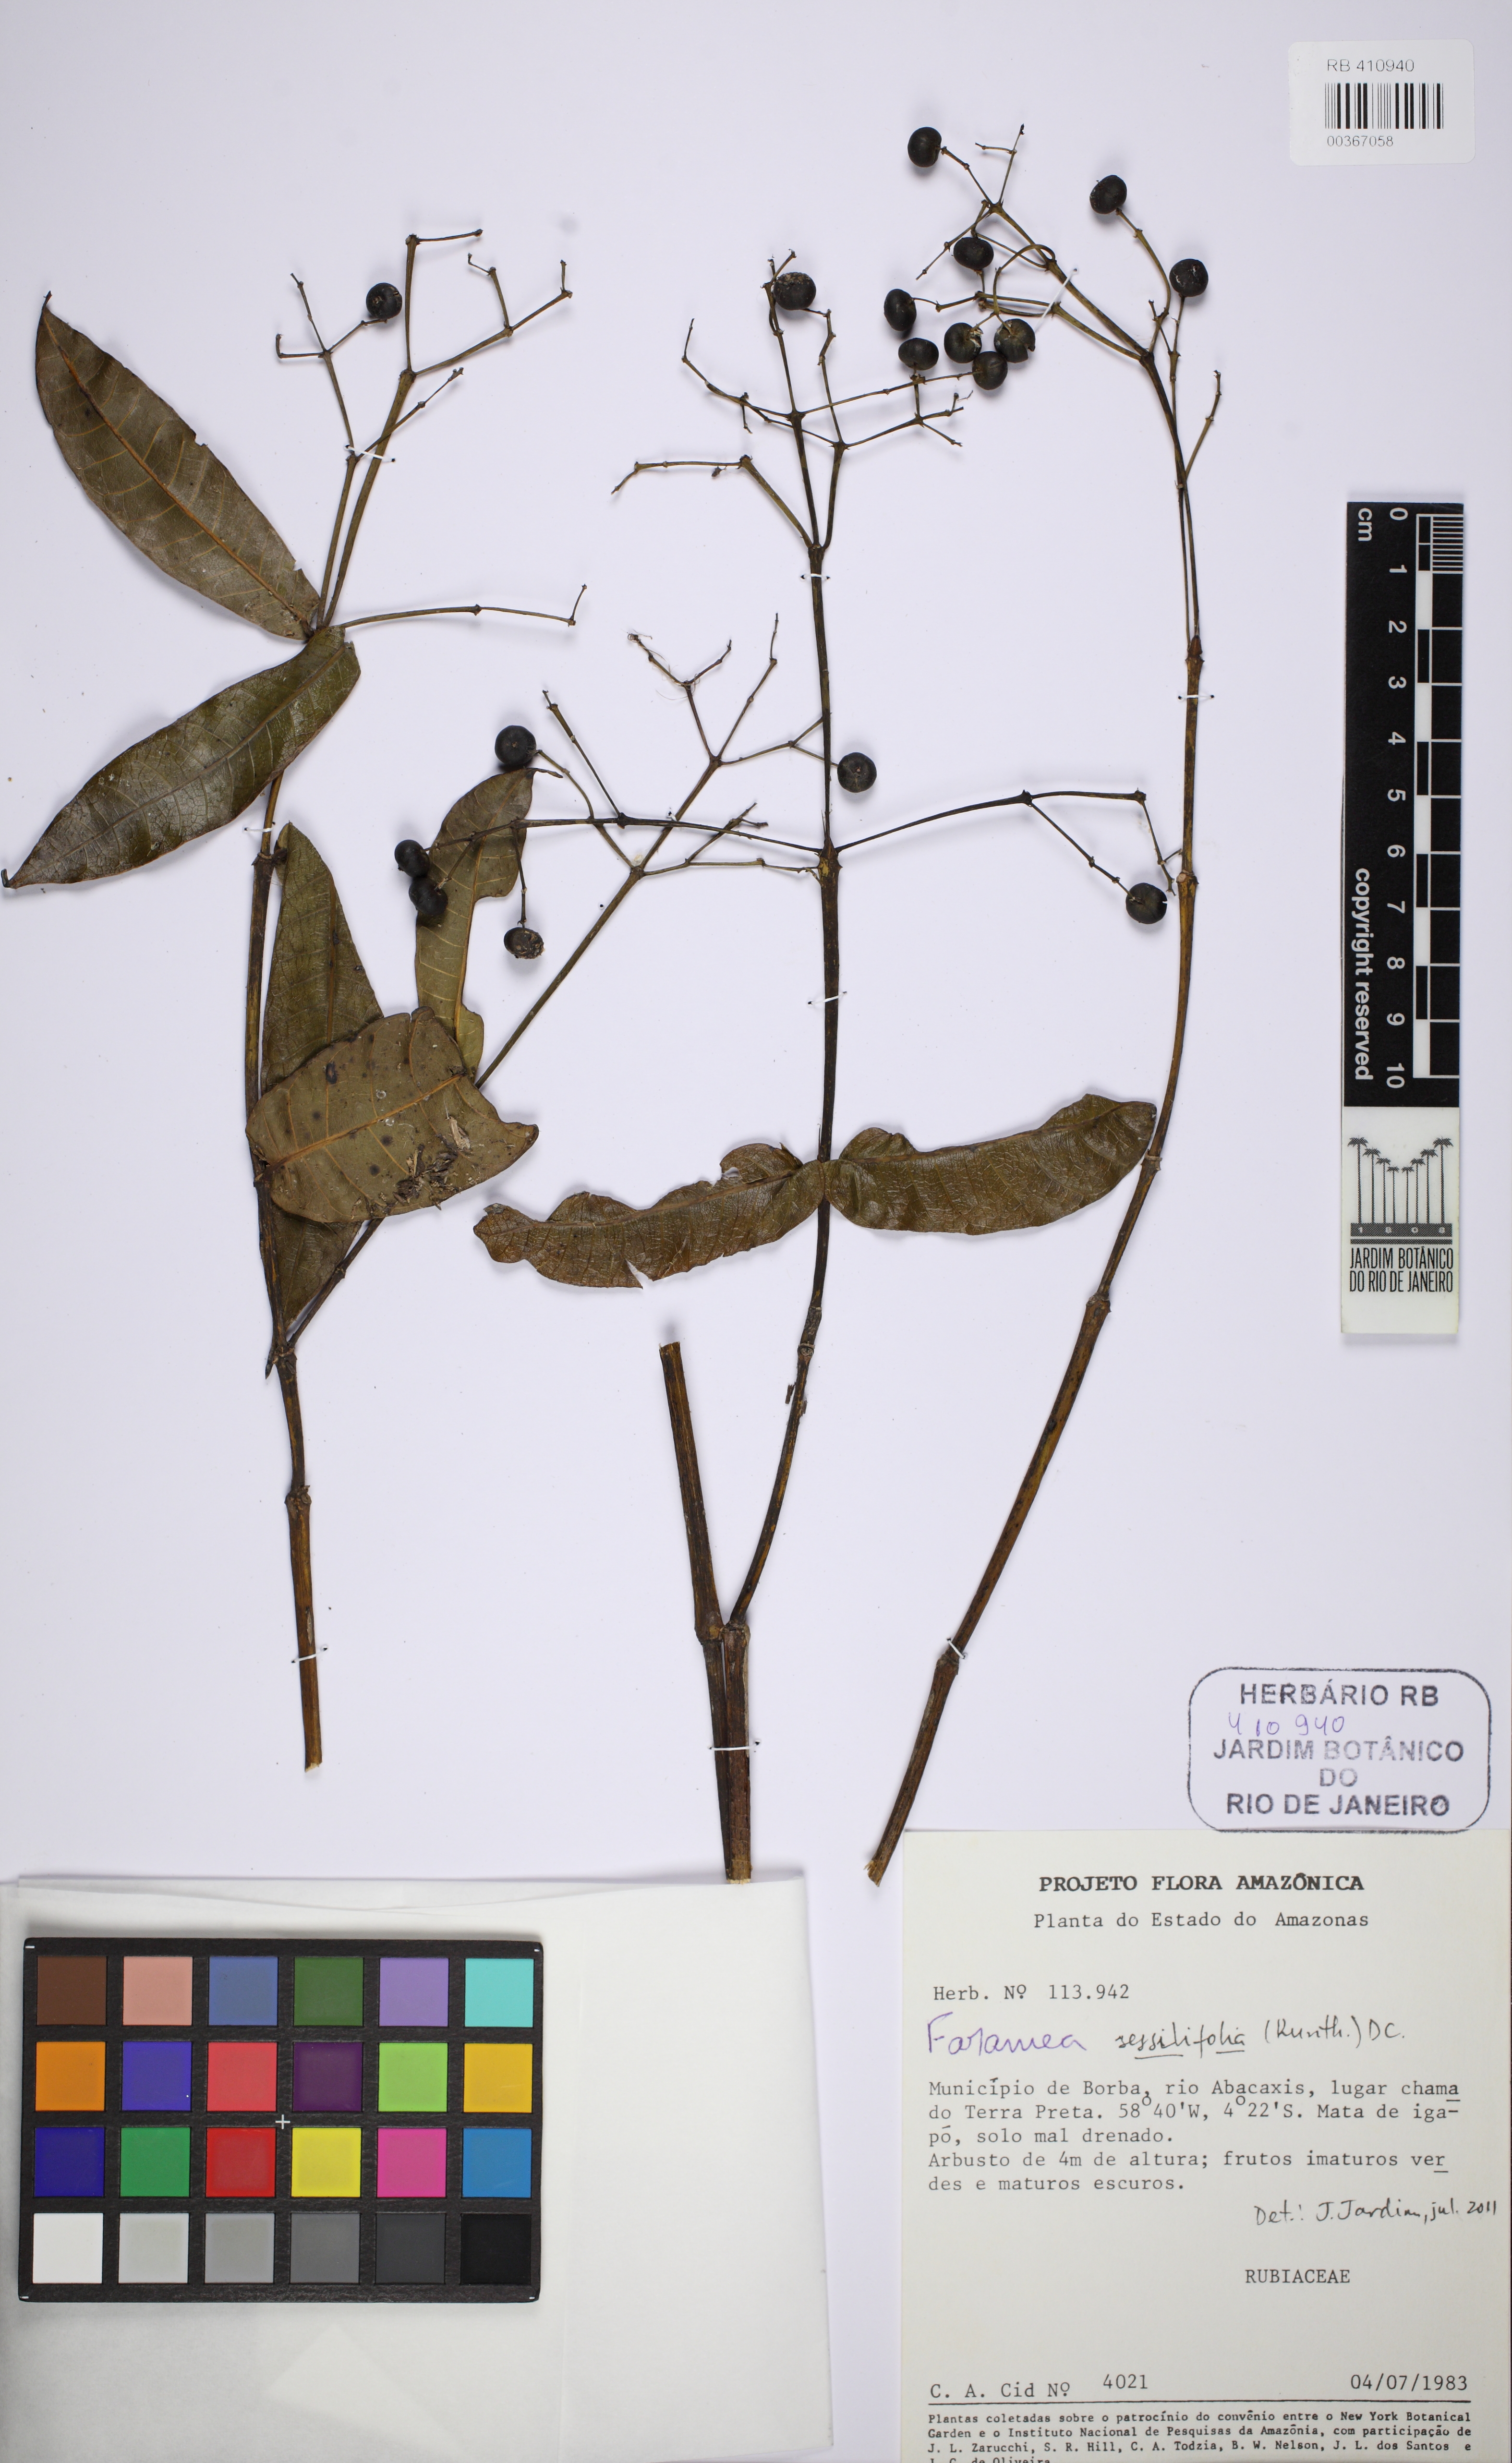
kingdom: Plantae
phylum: Tracheophyta
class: Magnoliopsida
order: Gentianales
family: Rubiaceae
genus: Faramea
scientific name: Faramea sessilifolia
